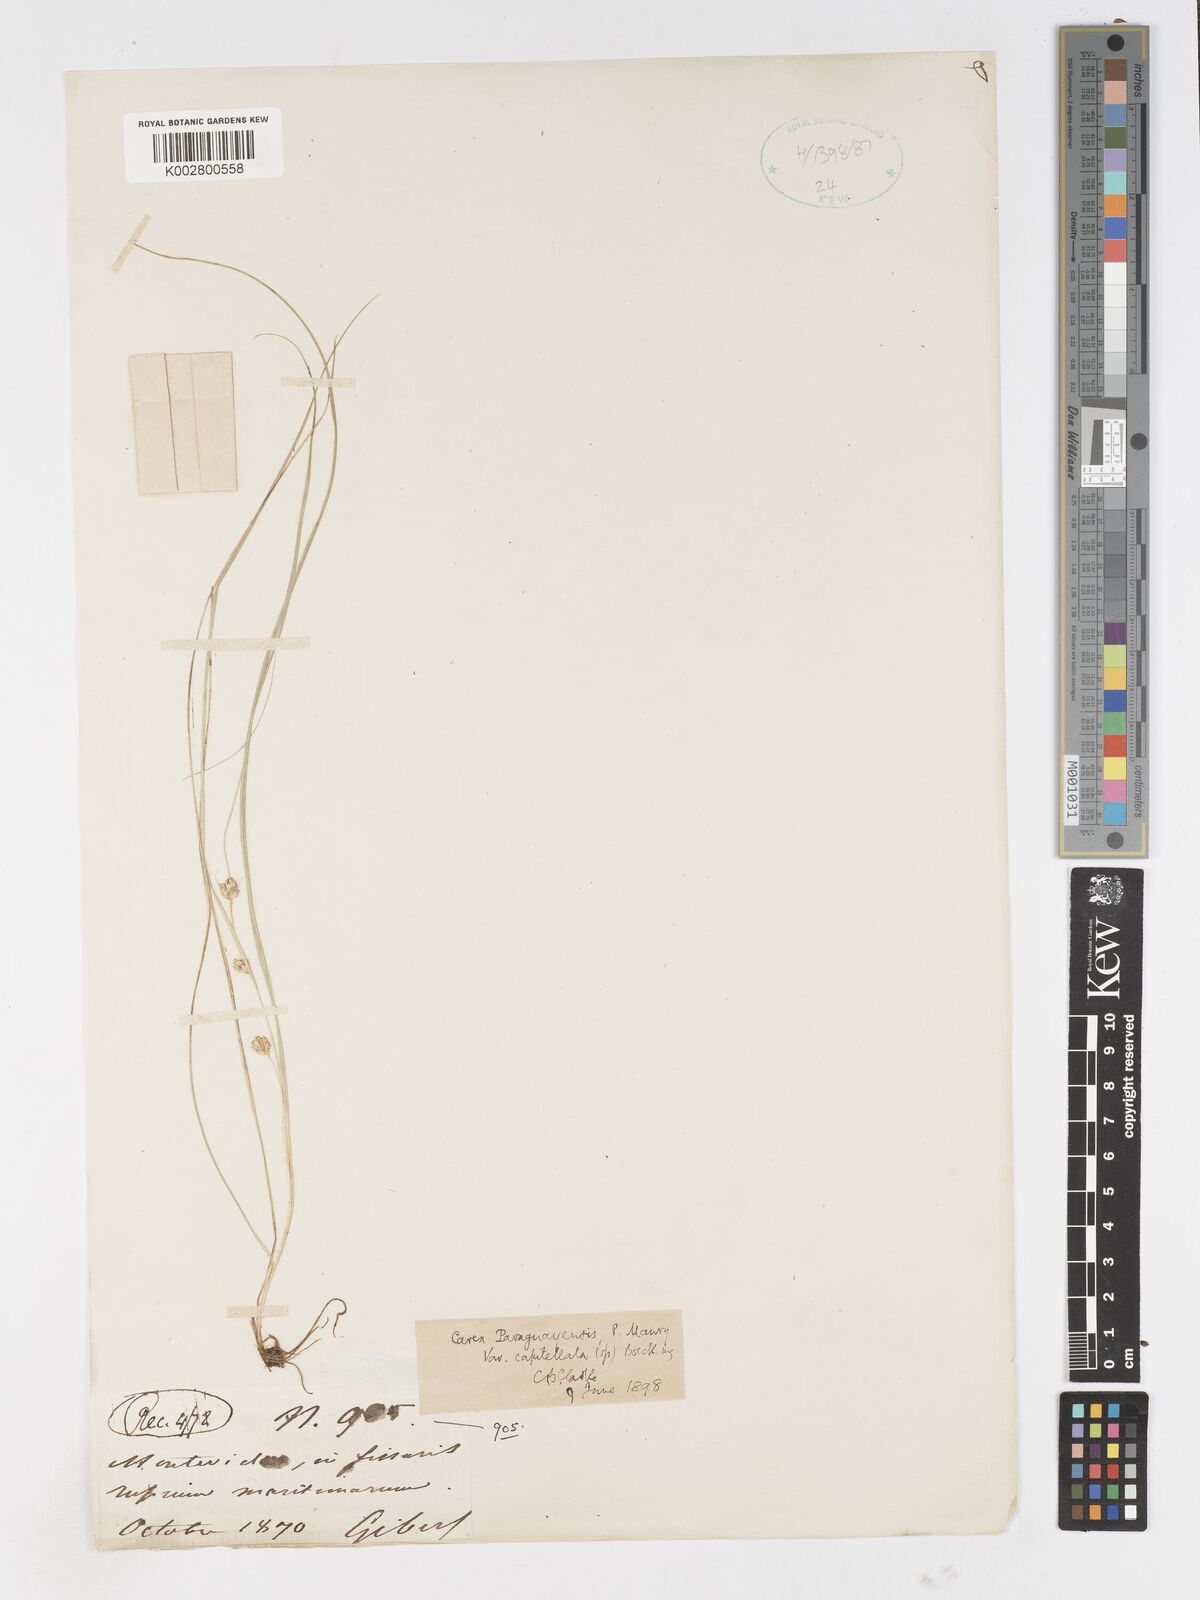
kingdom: Plantae
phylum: Tracheophyta
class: Liliopsida
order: Poales
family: Cyperaceae
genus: Carex
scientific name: Carex phalaroides
